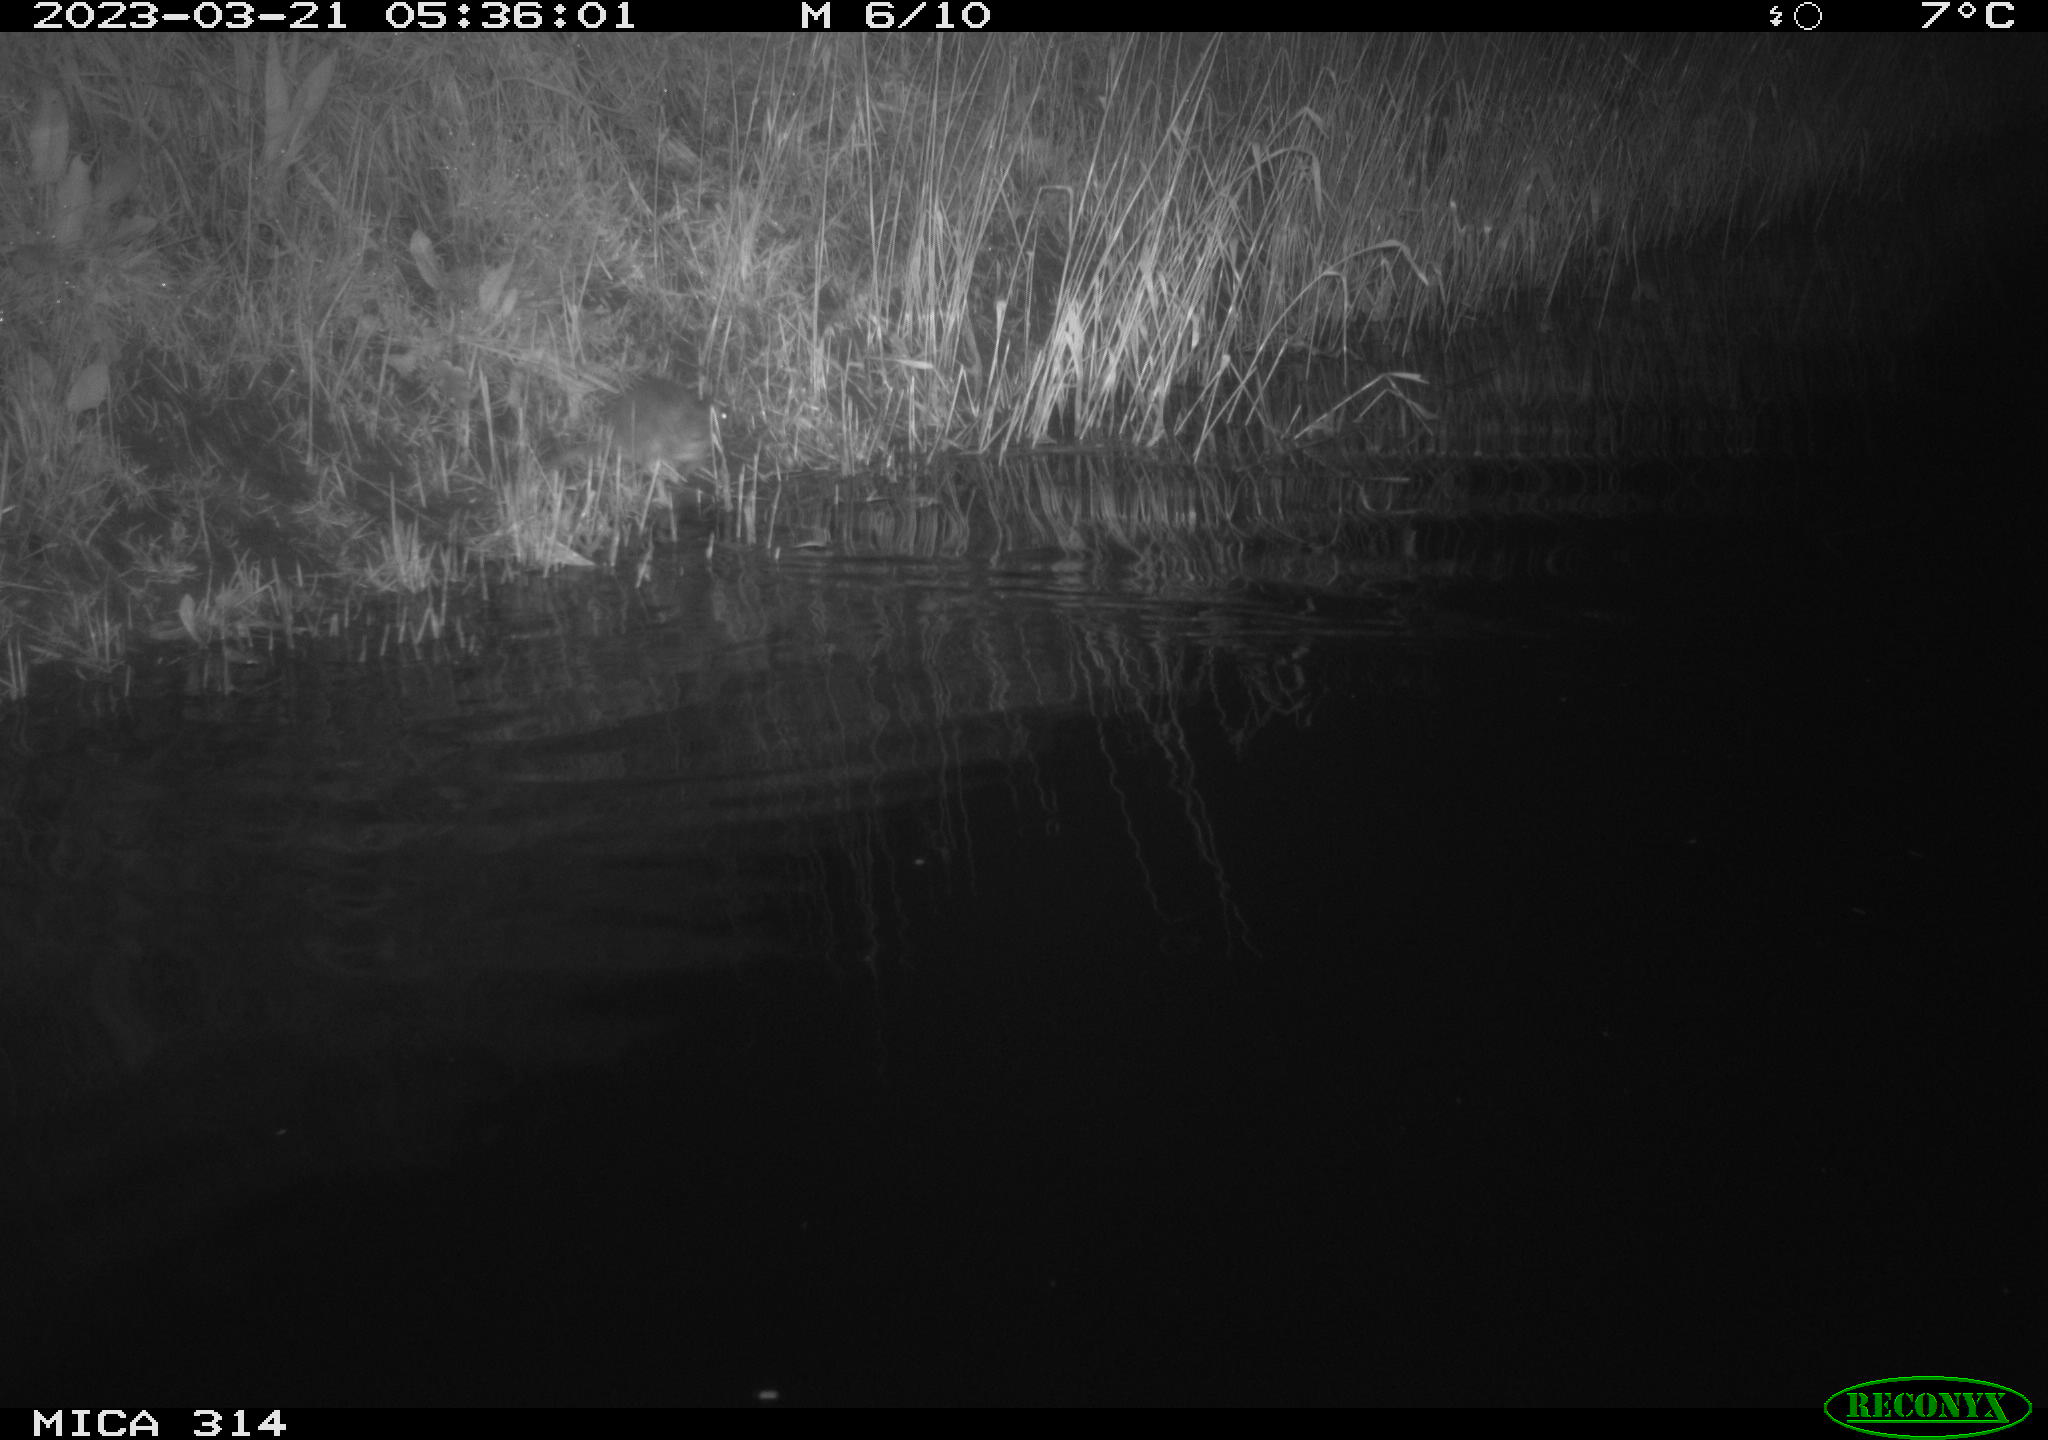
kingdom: Animalia
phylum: Chordata
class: Mammalia
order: Rodentia
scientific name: Rodentia
